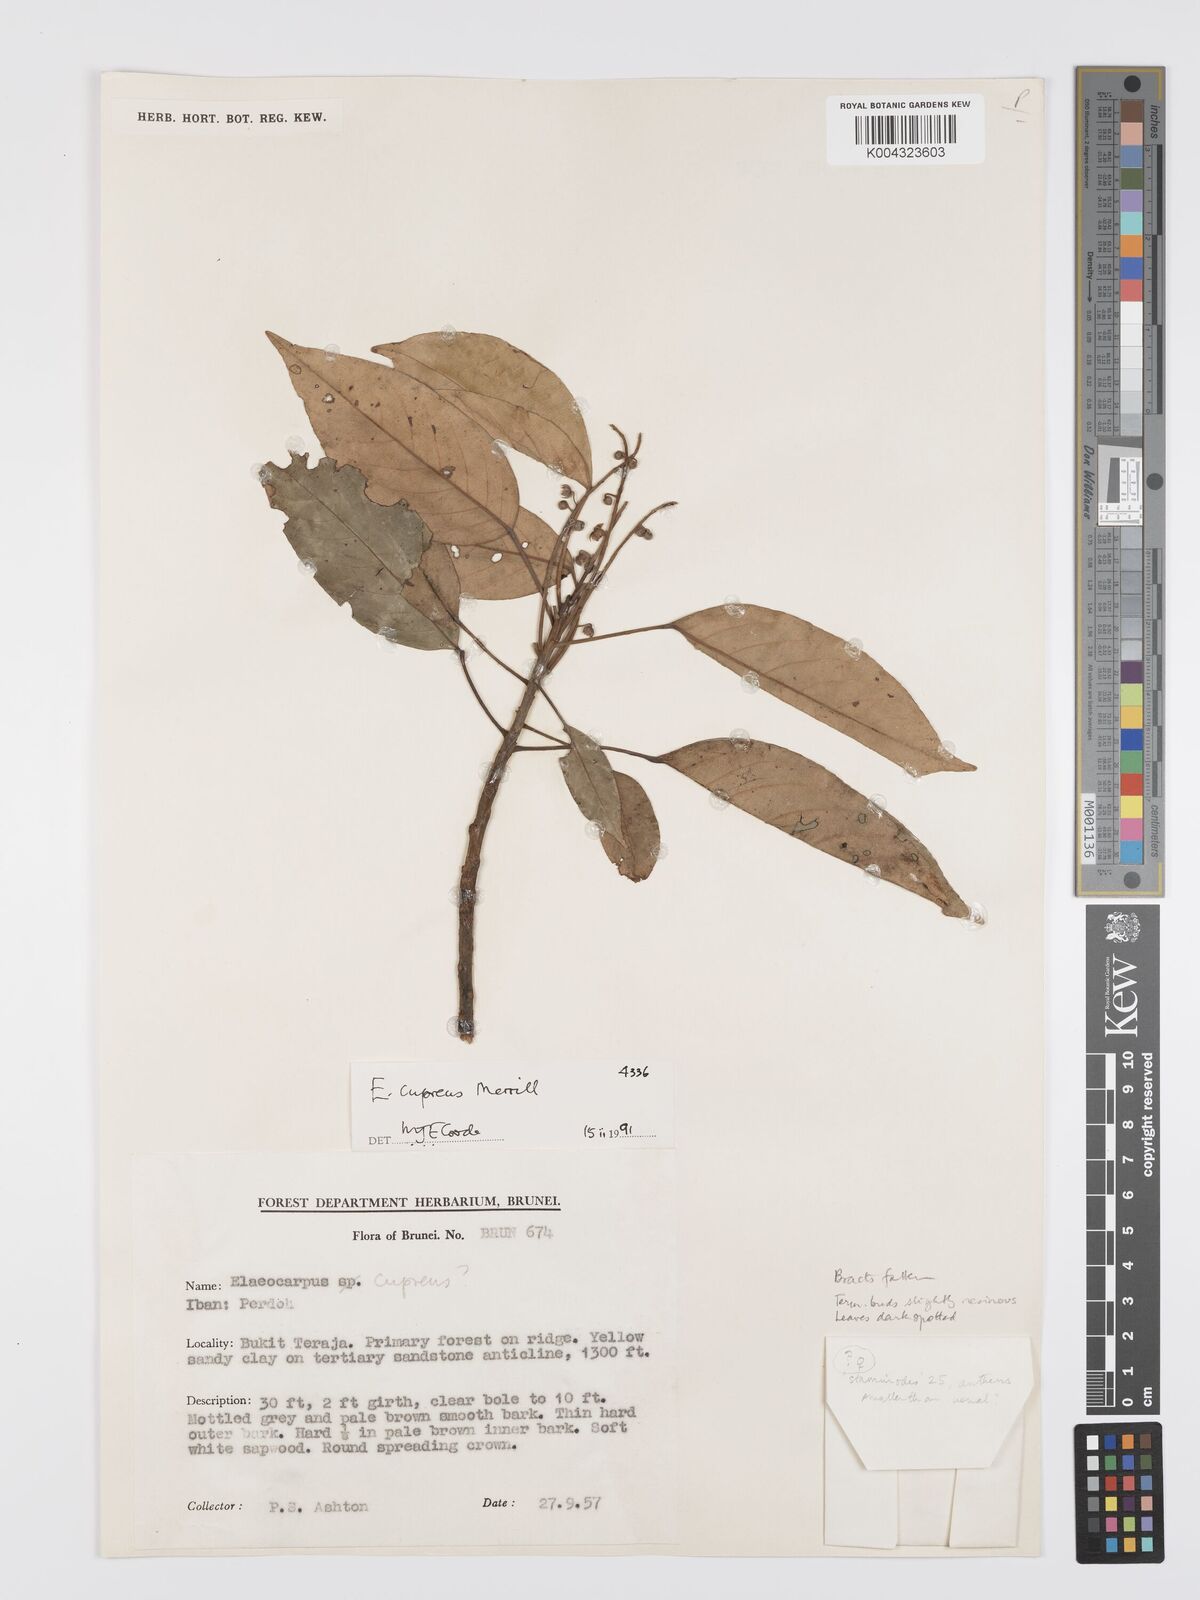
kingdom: Plantae
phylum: Tracheophyta
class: Magnoliopsida
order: Oxalidales
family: Elaeocarpaceae
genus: Elaeocarpus
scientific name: Elaeocarpus cupreus
